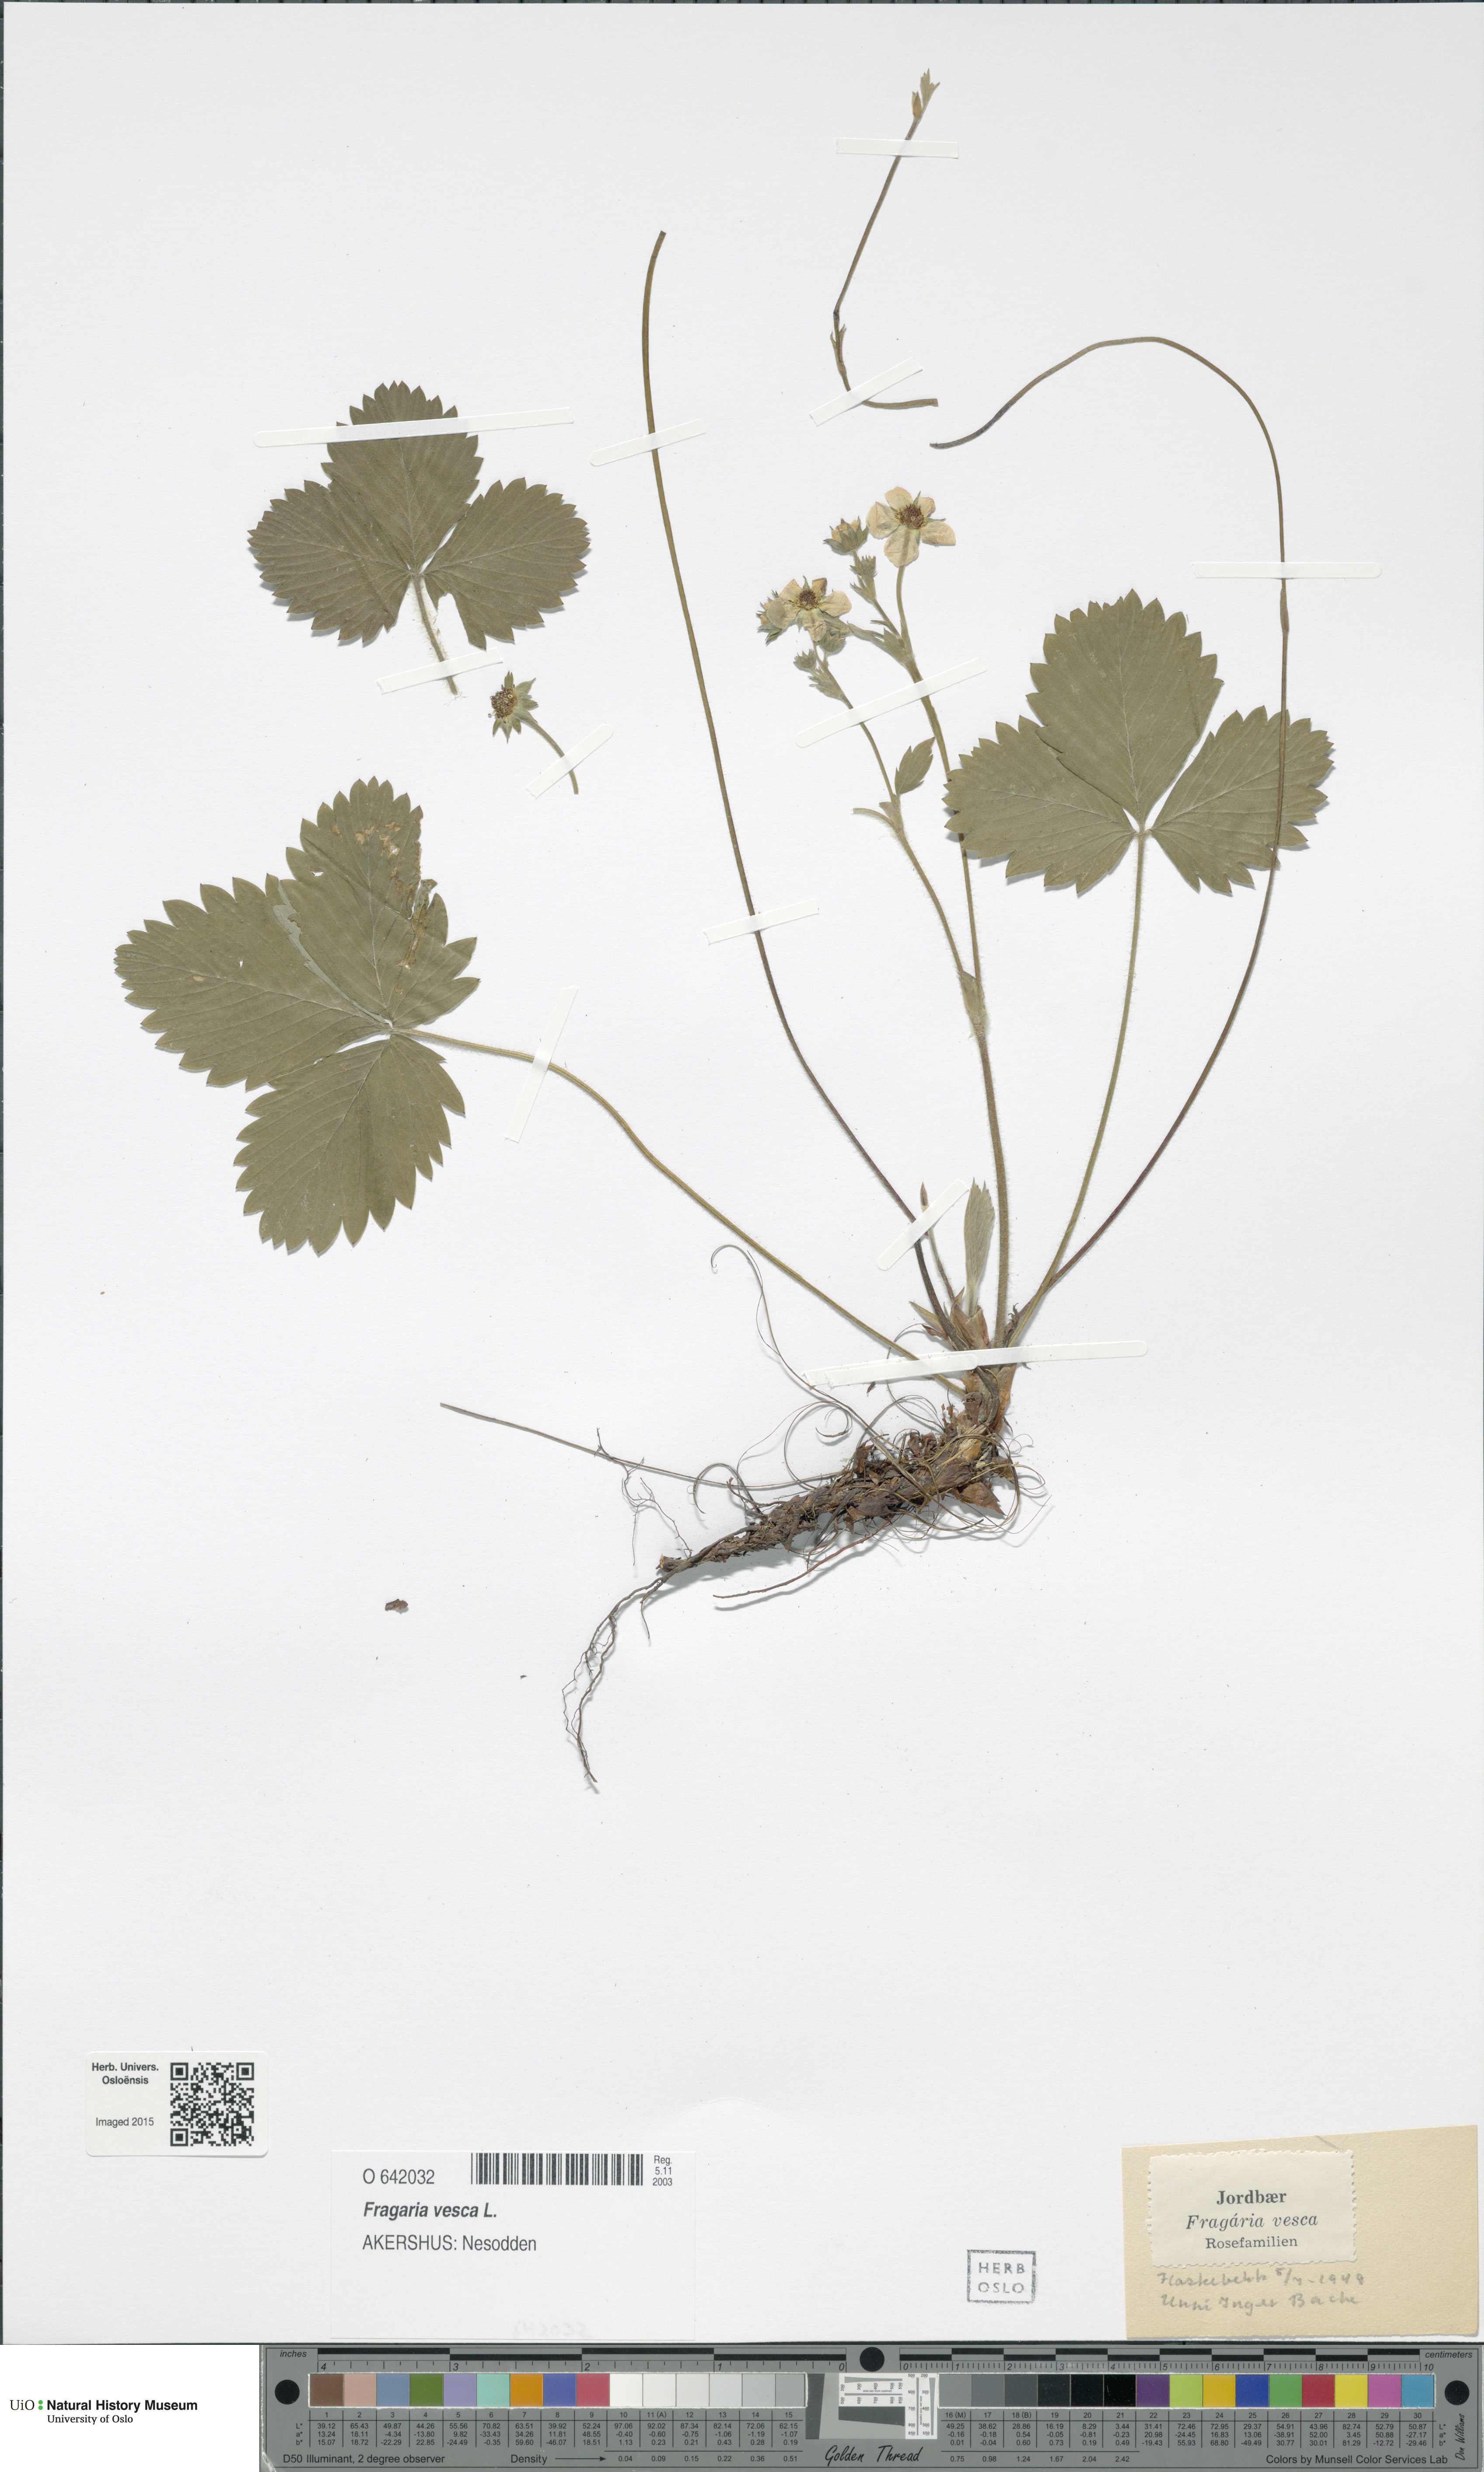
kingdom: Plantae
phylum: Tracheophyta
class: Magnoliopsida
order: Rosales
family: Rosaceae
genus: Fragaria
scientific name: Fragaria vesca
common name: Wild strawberry
